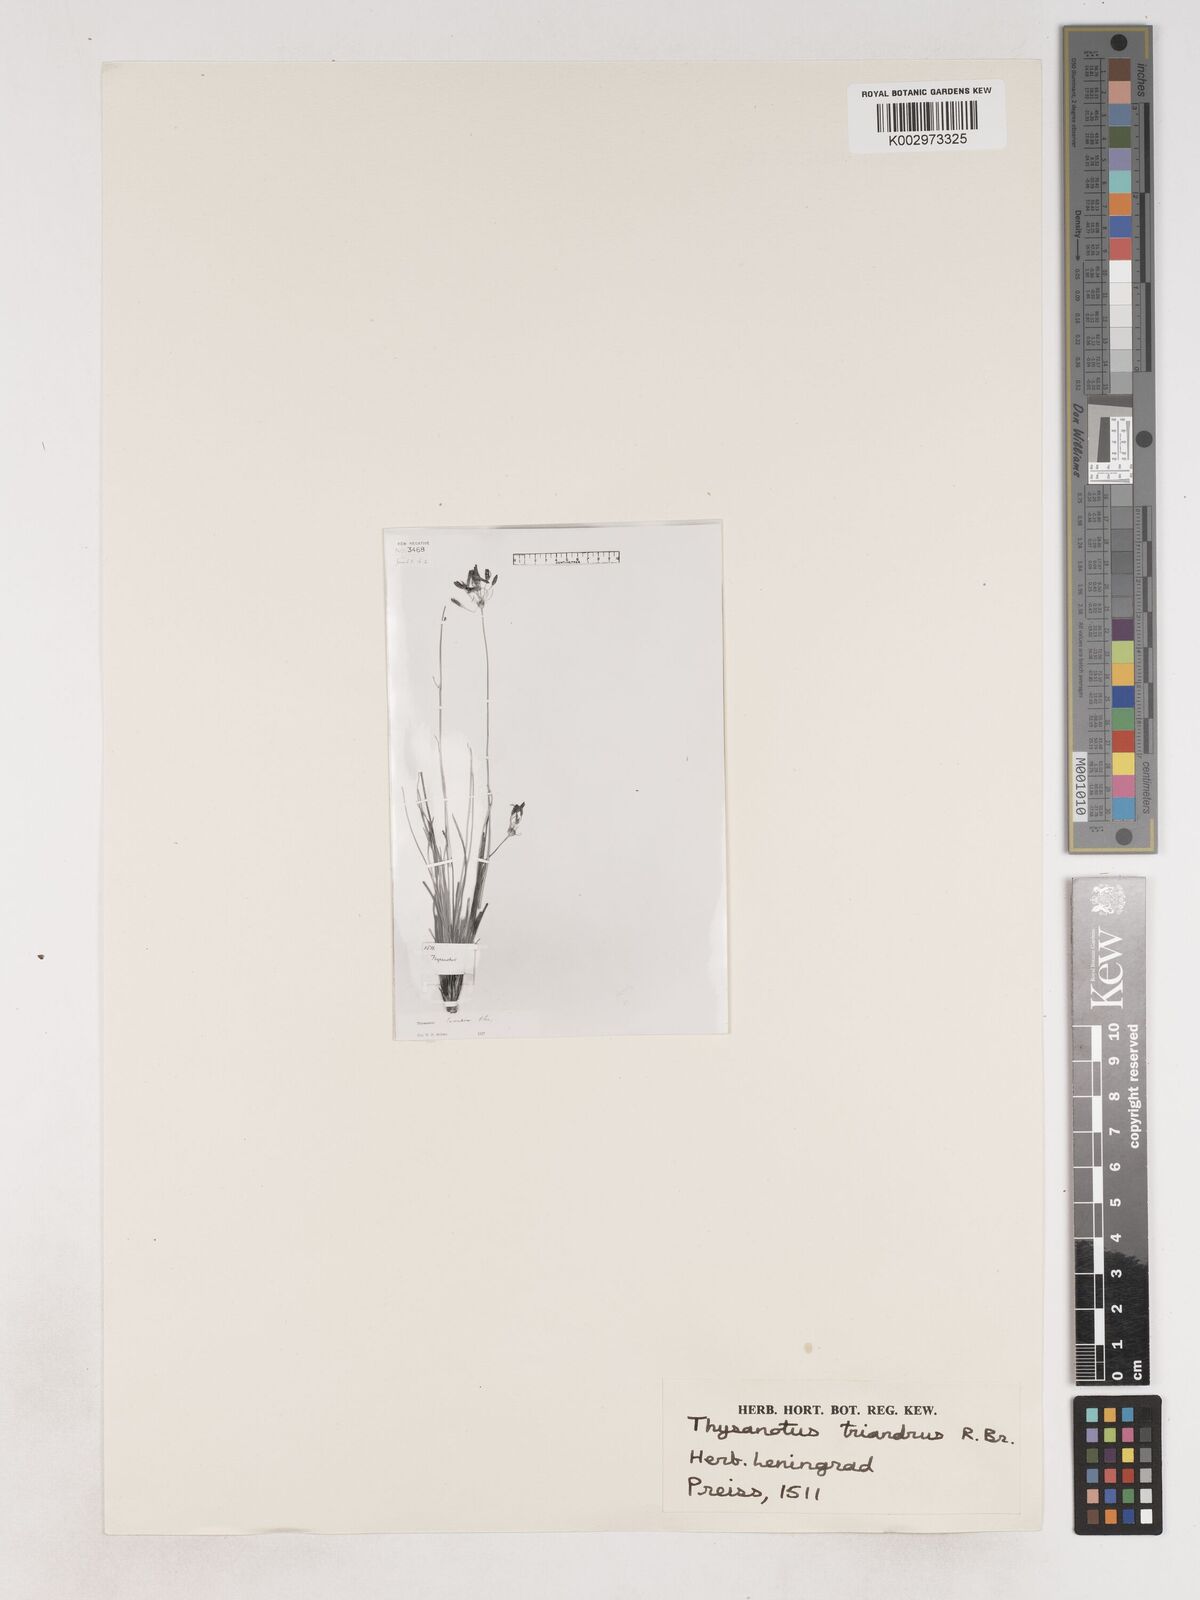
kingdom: Plantae
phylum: Tracheophyta
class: Liliopsida
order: Asparagales
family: Asparagaceae
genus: Thysanotus
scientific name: Thysanotus triandrus
